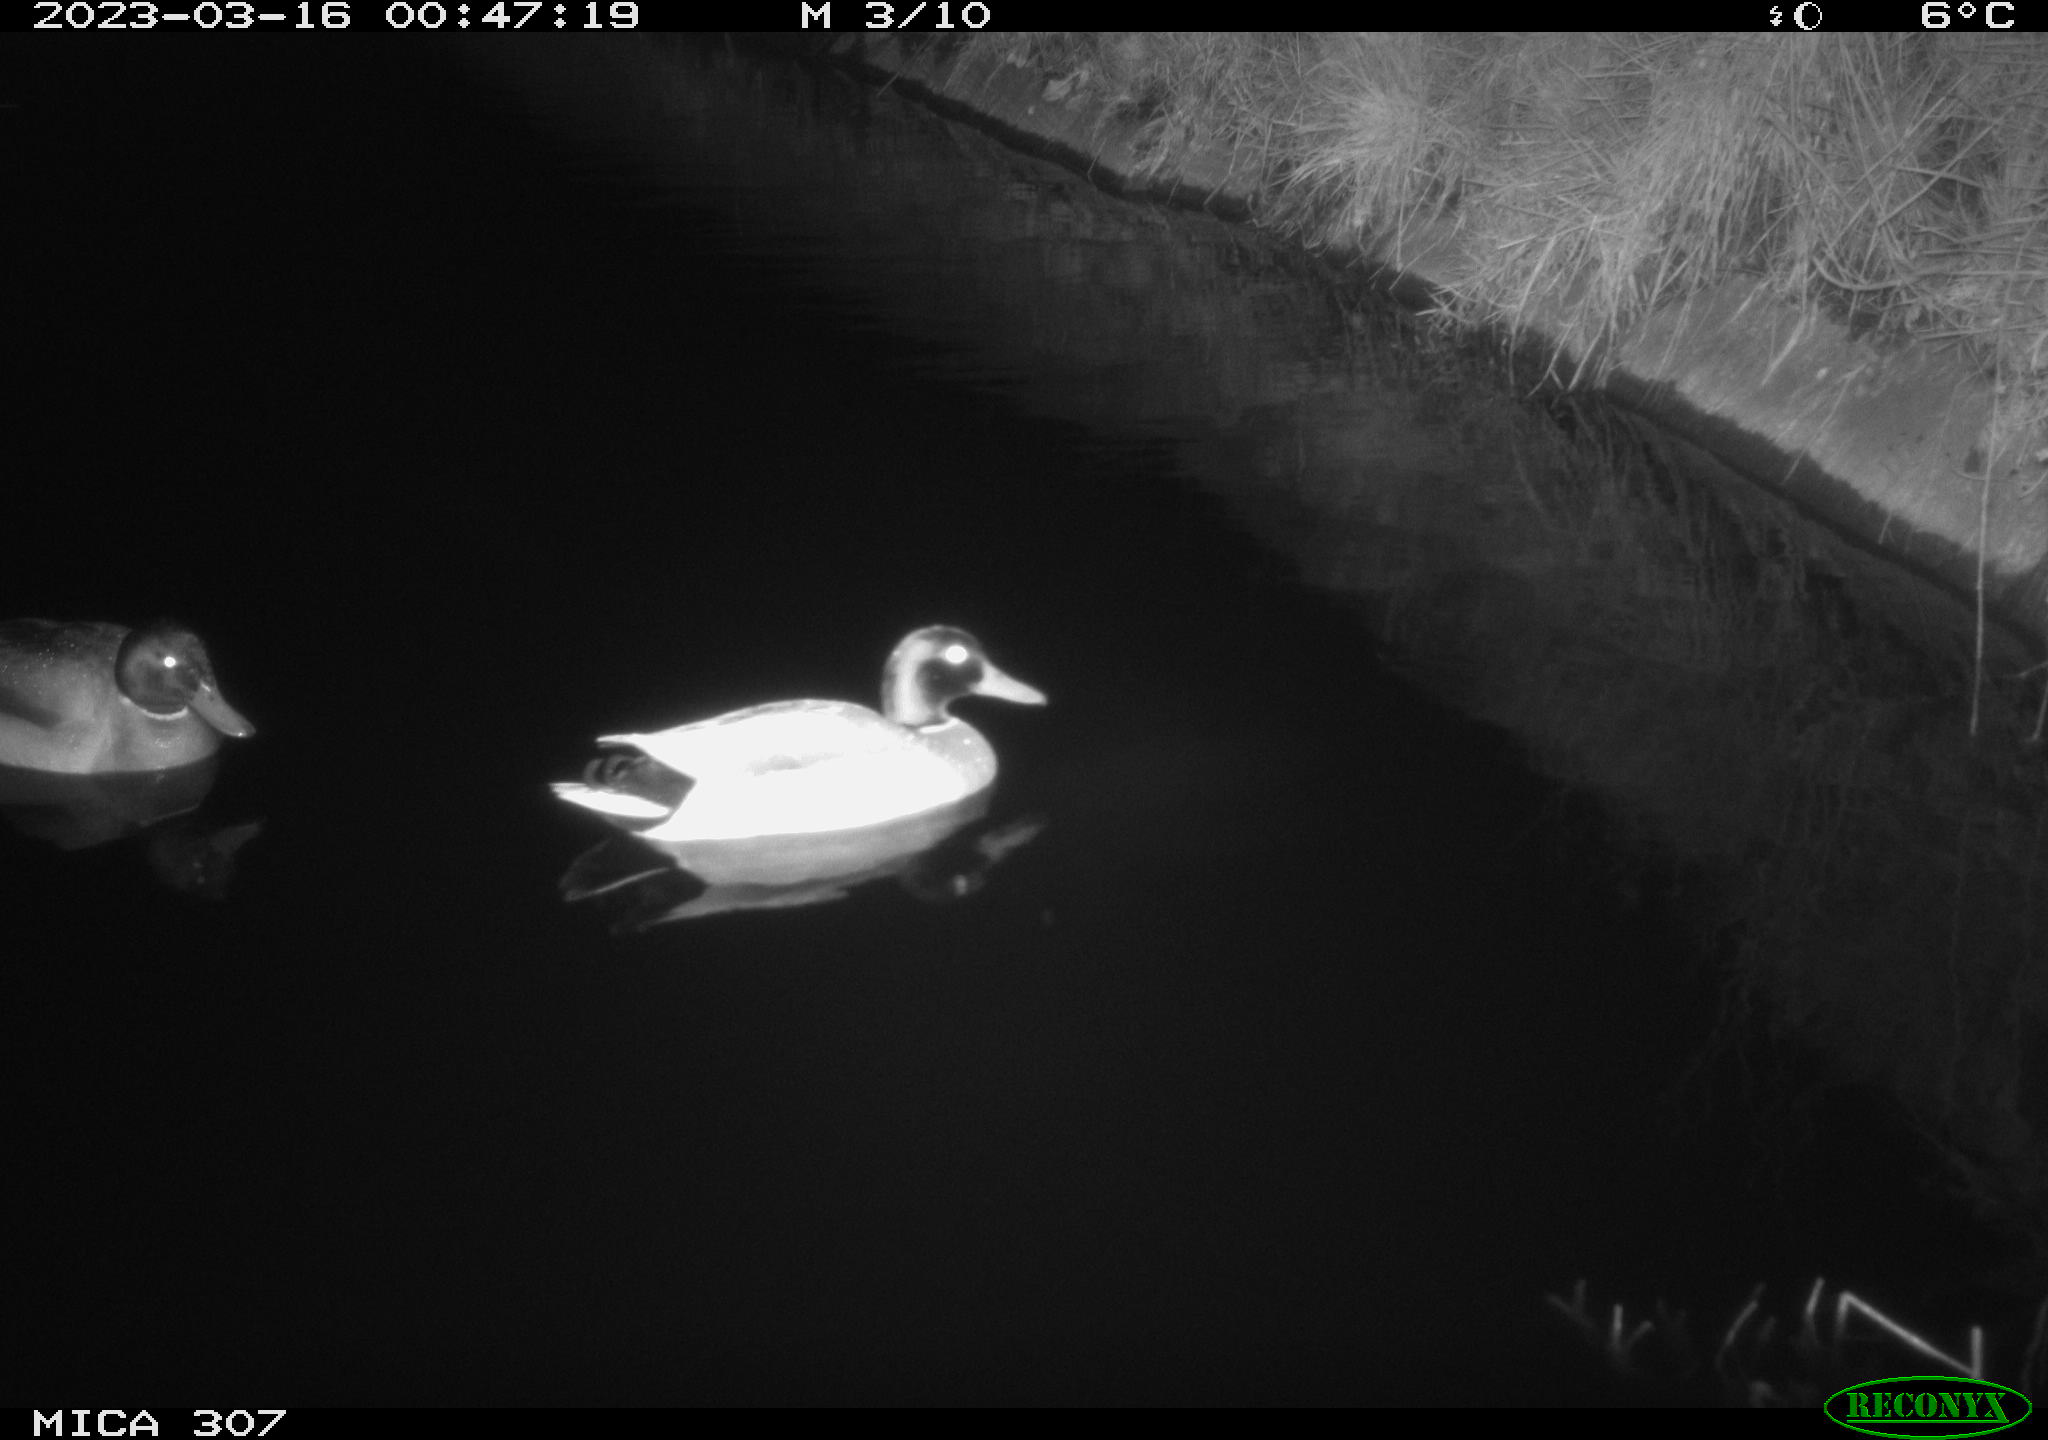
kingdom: Animalia
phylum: Chordata
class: Aves
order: Anseriformes
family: Anatidae
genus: Anas
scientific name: Anas
